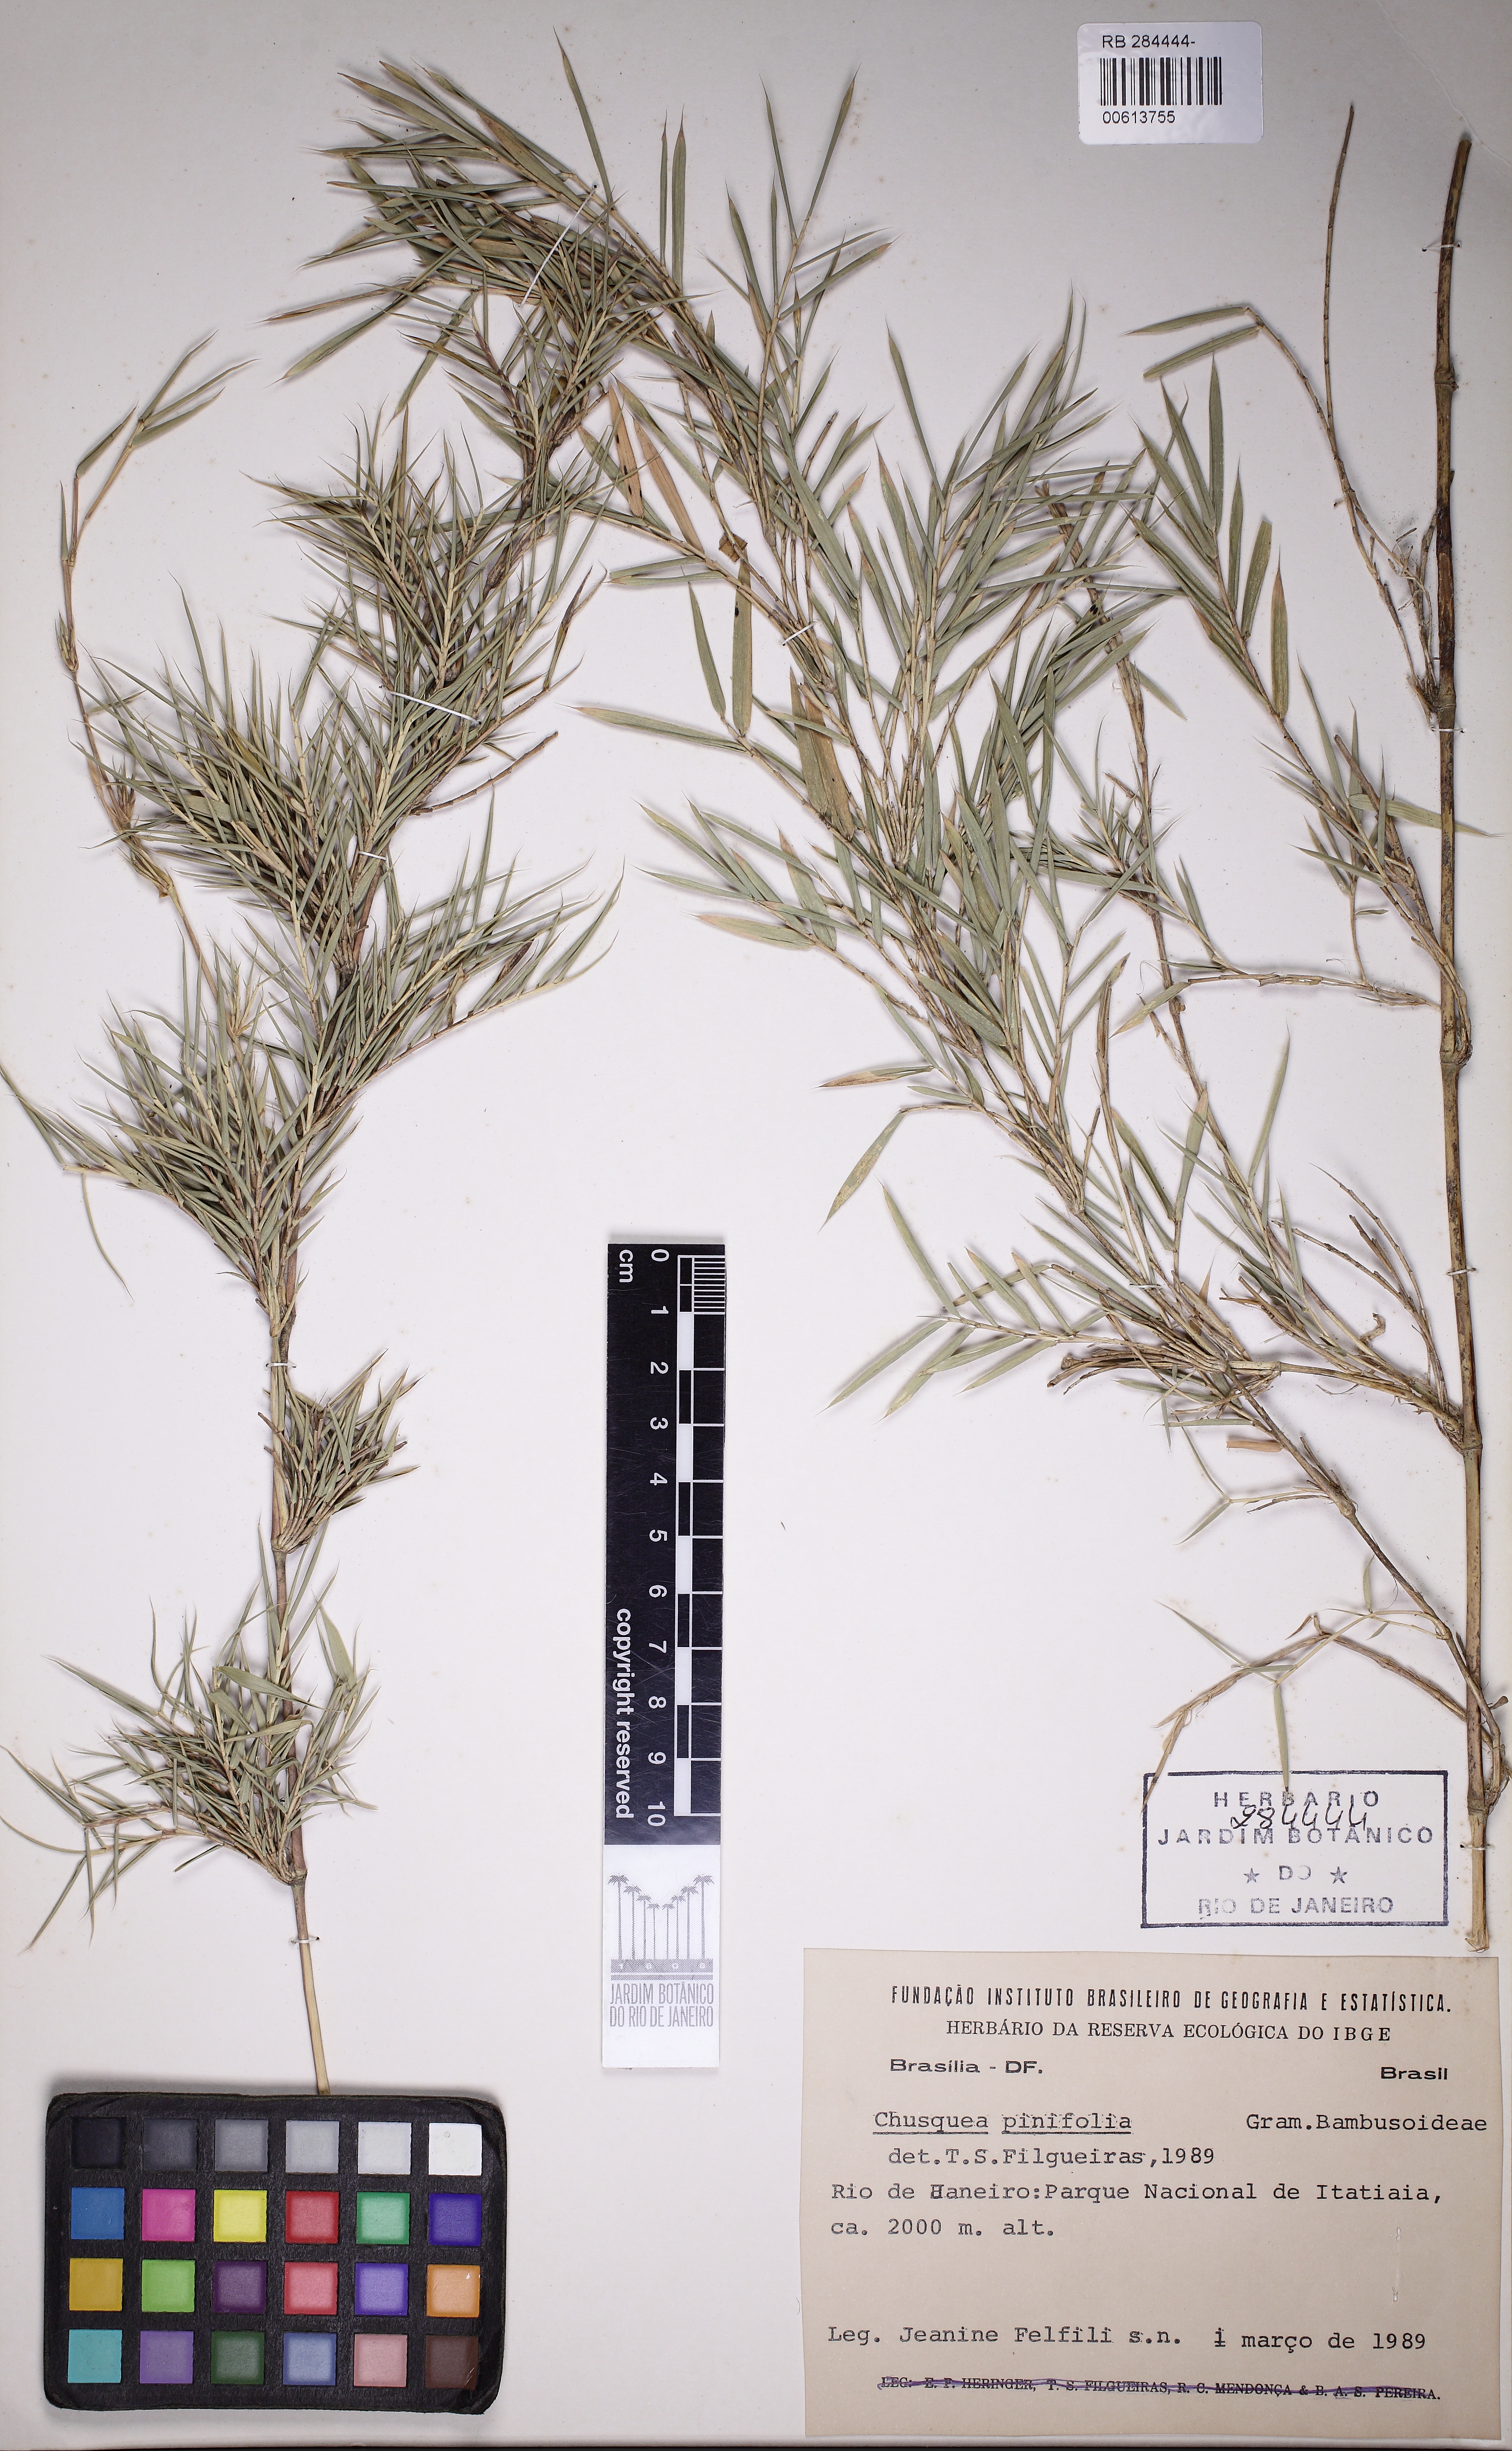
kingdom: Plantae
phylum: Tracheophyta
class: Liliopsida
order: Poales
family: Poaceae
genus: Chusquea
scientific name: Chusquea heterophylla
